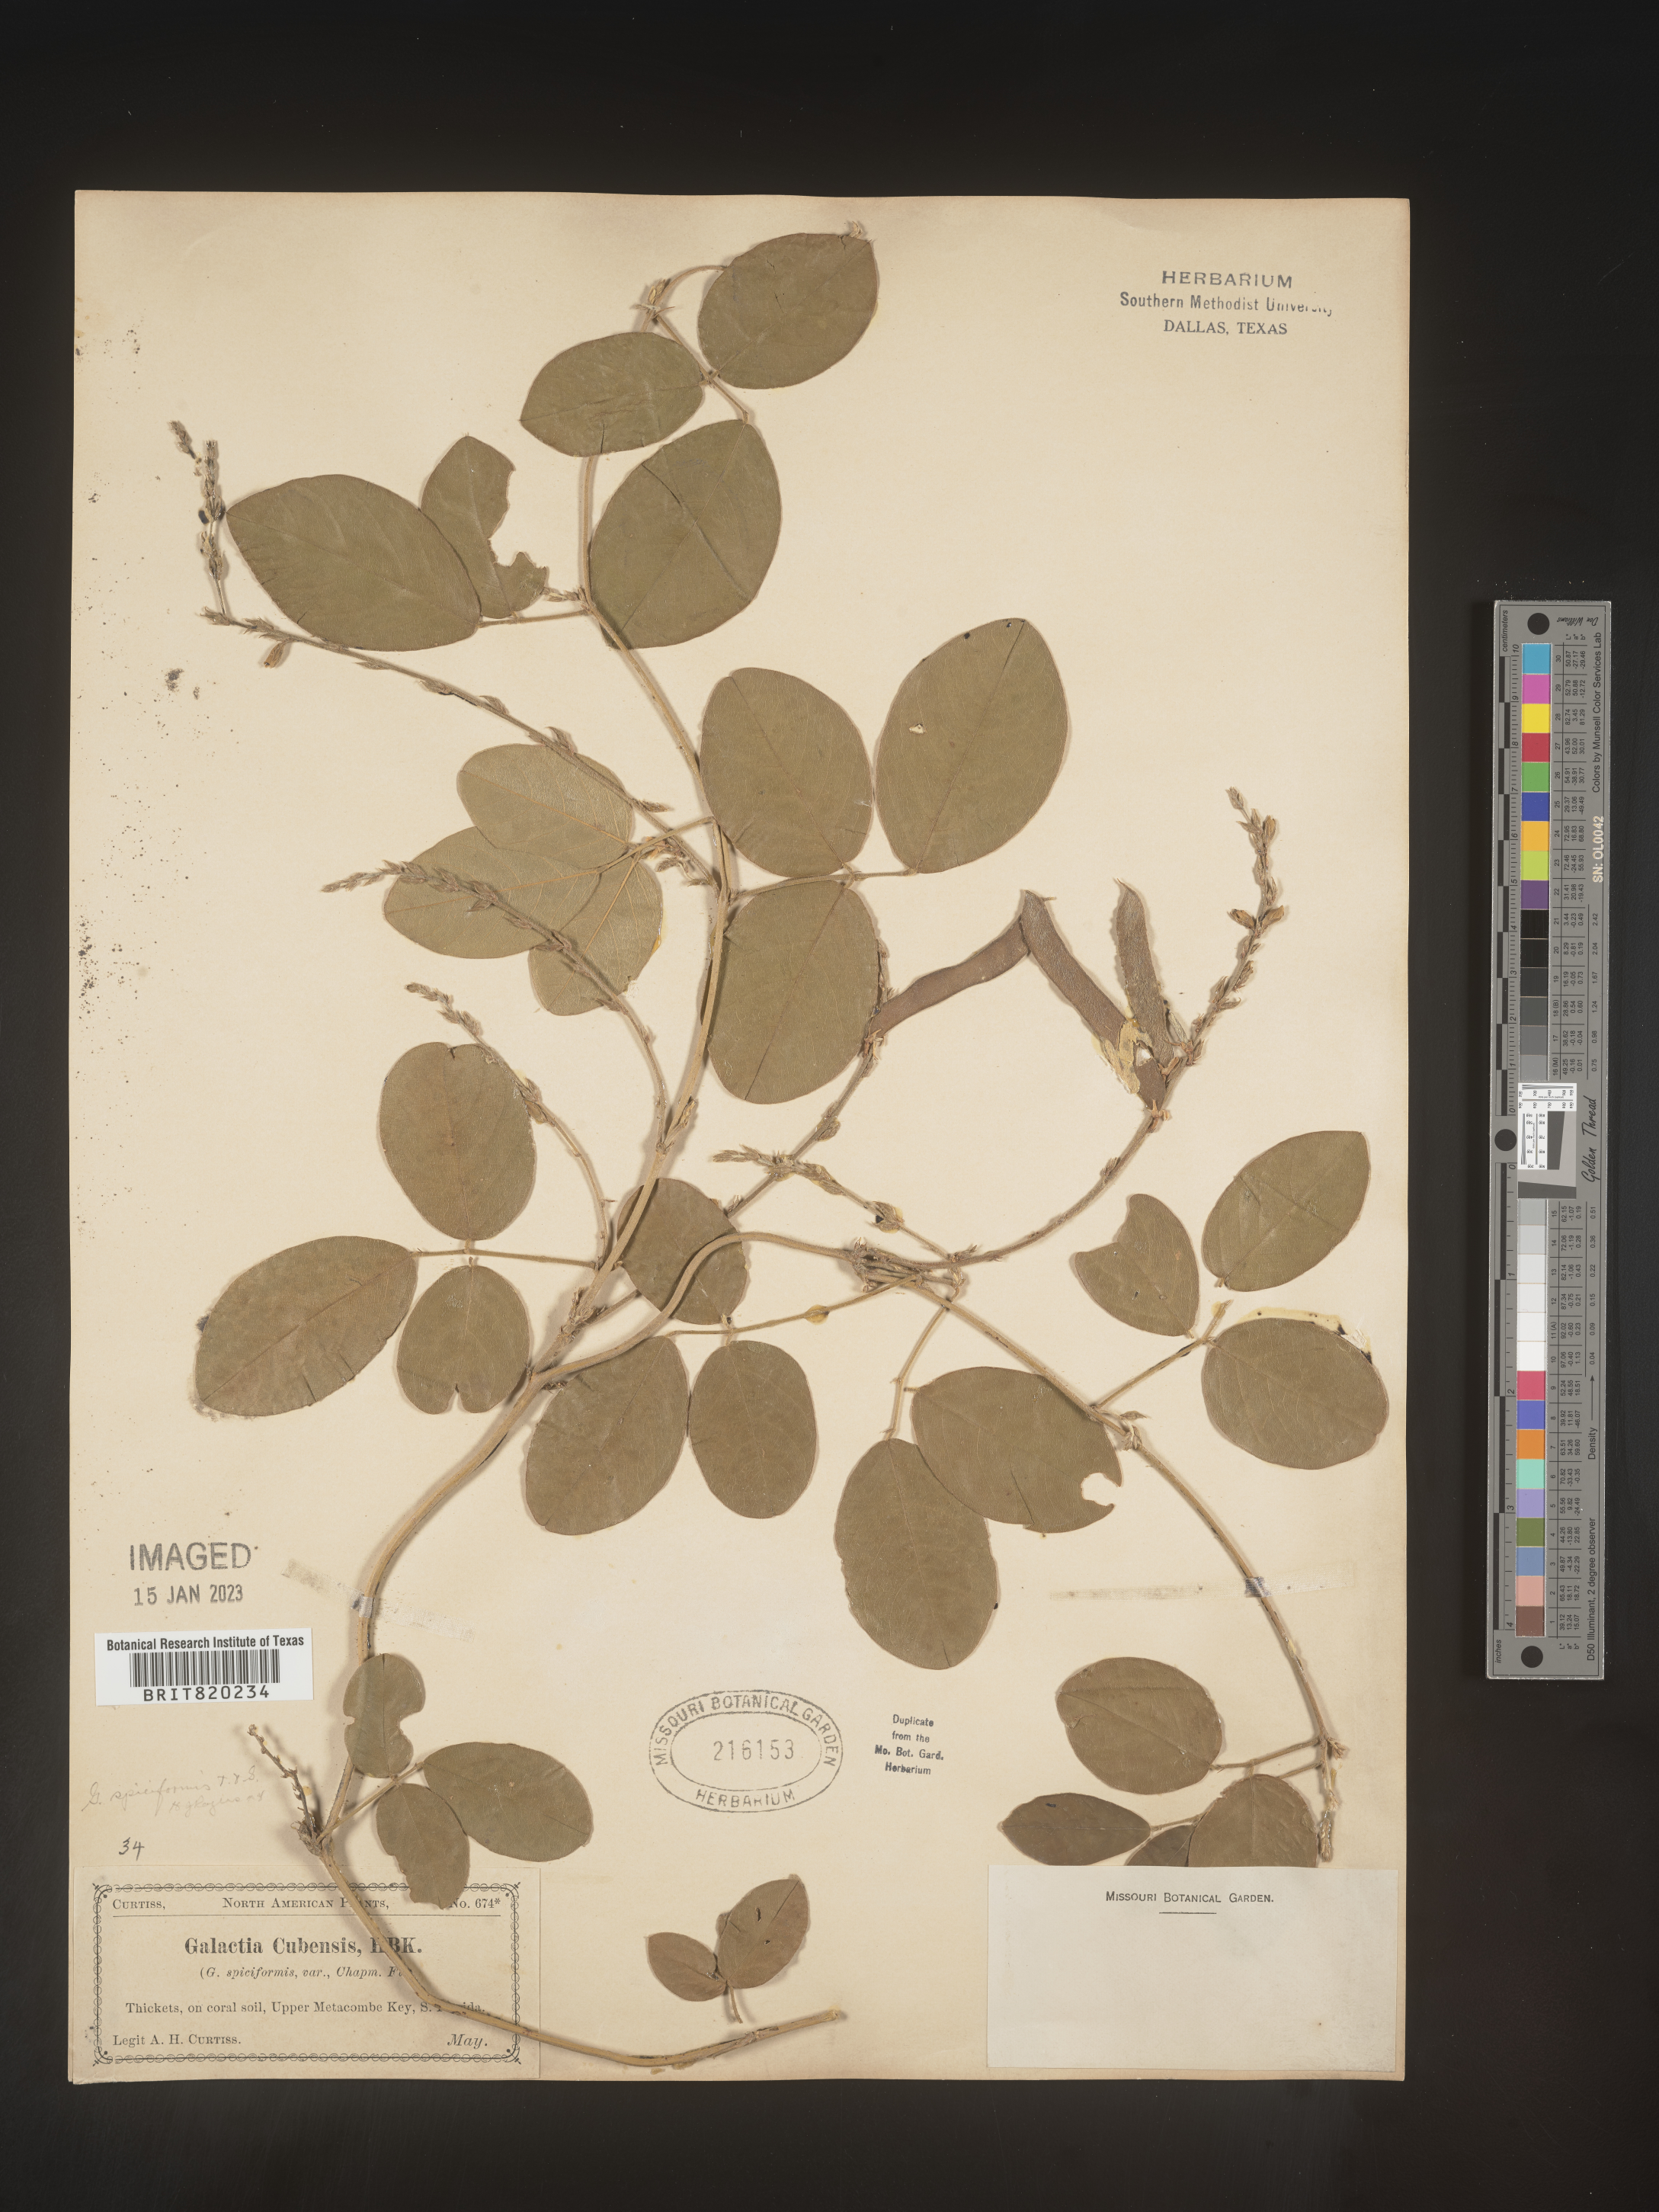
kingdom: Plantae
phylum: Tracheophyta
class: Magnoliopsida
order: Fabales
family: Fabaceae
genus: Galactia
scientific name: Galactia striata
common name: Florida hammock milkpea
